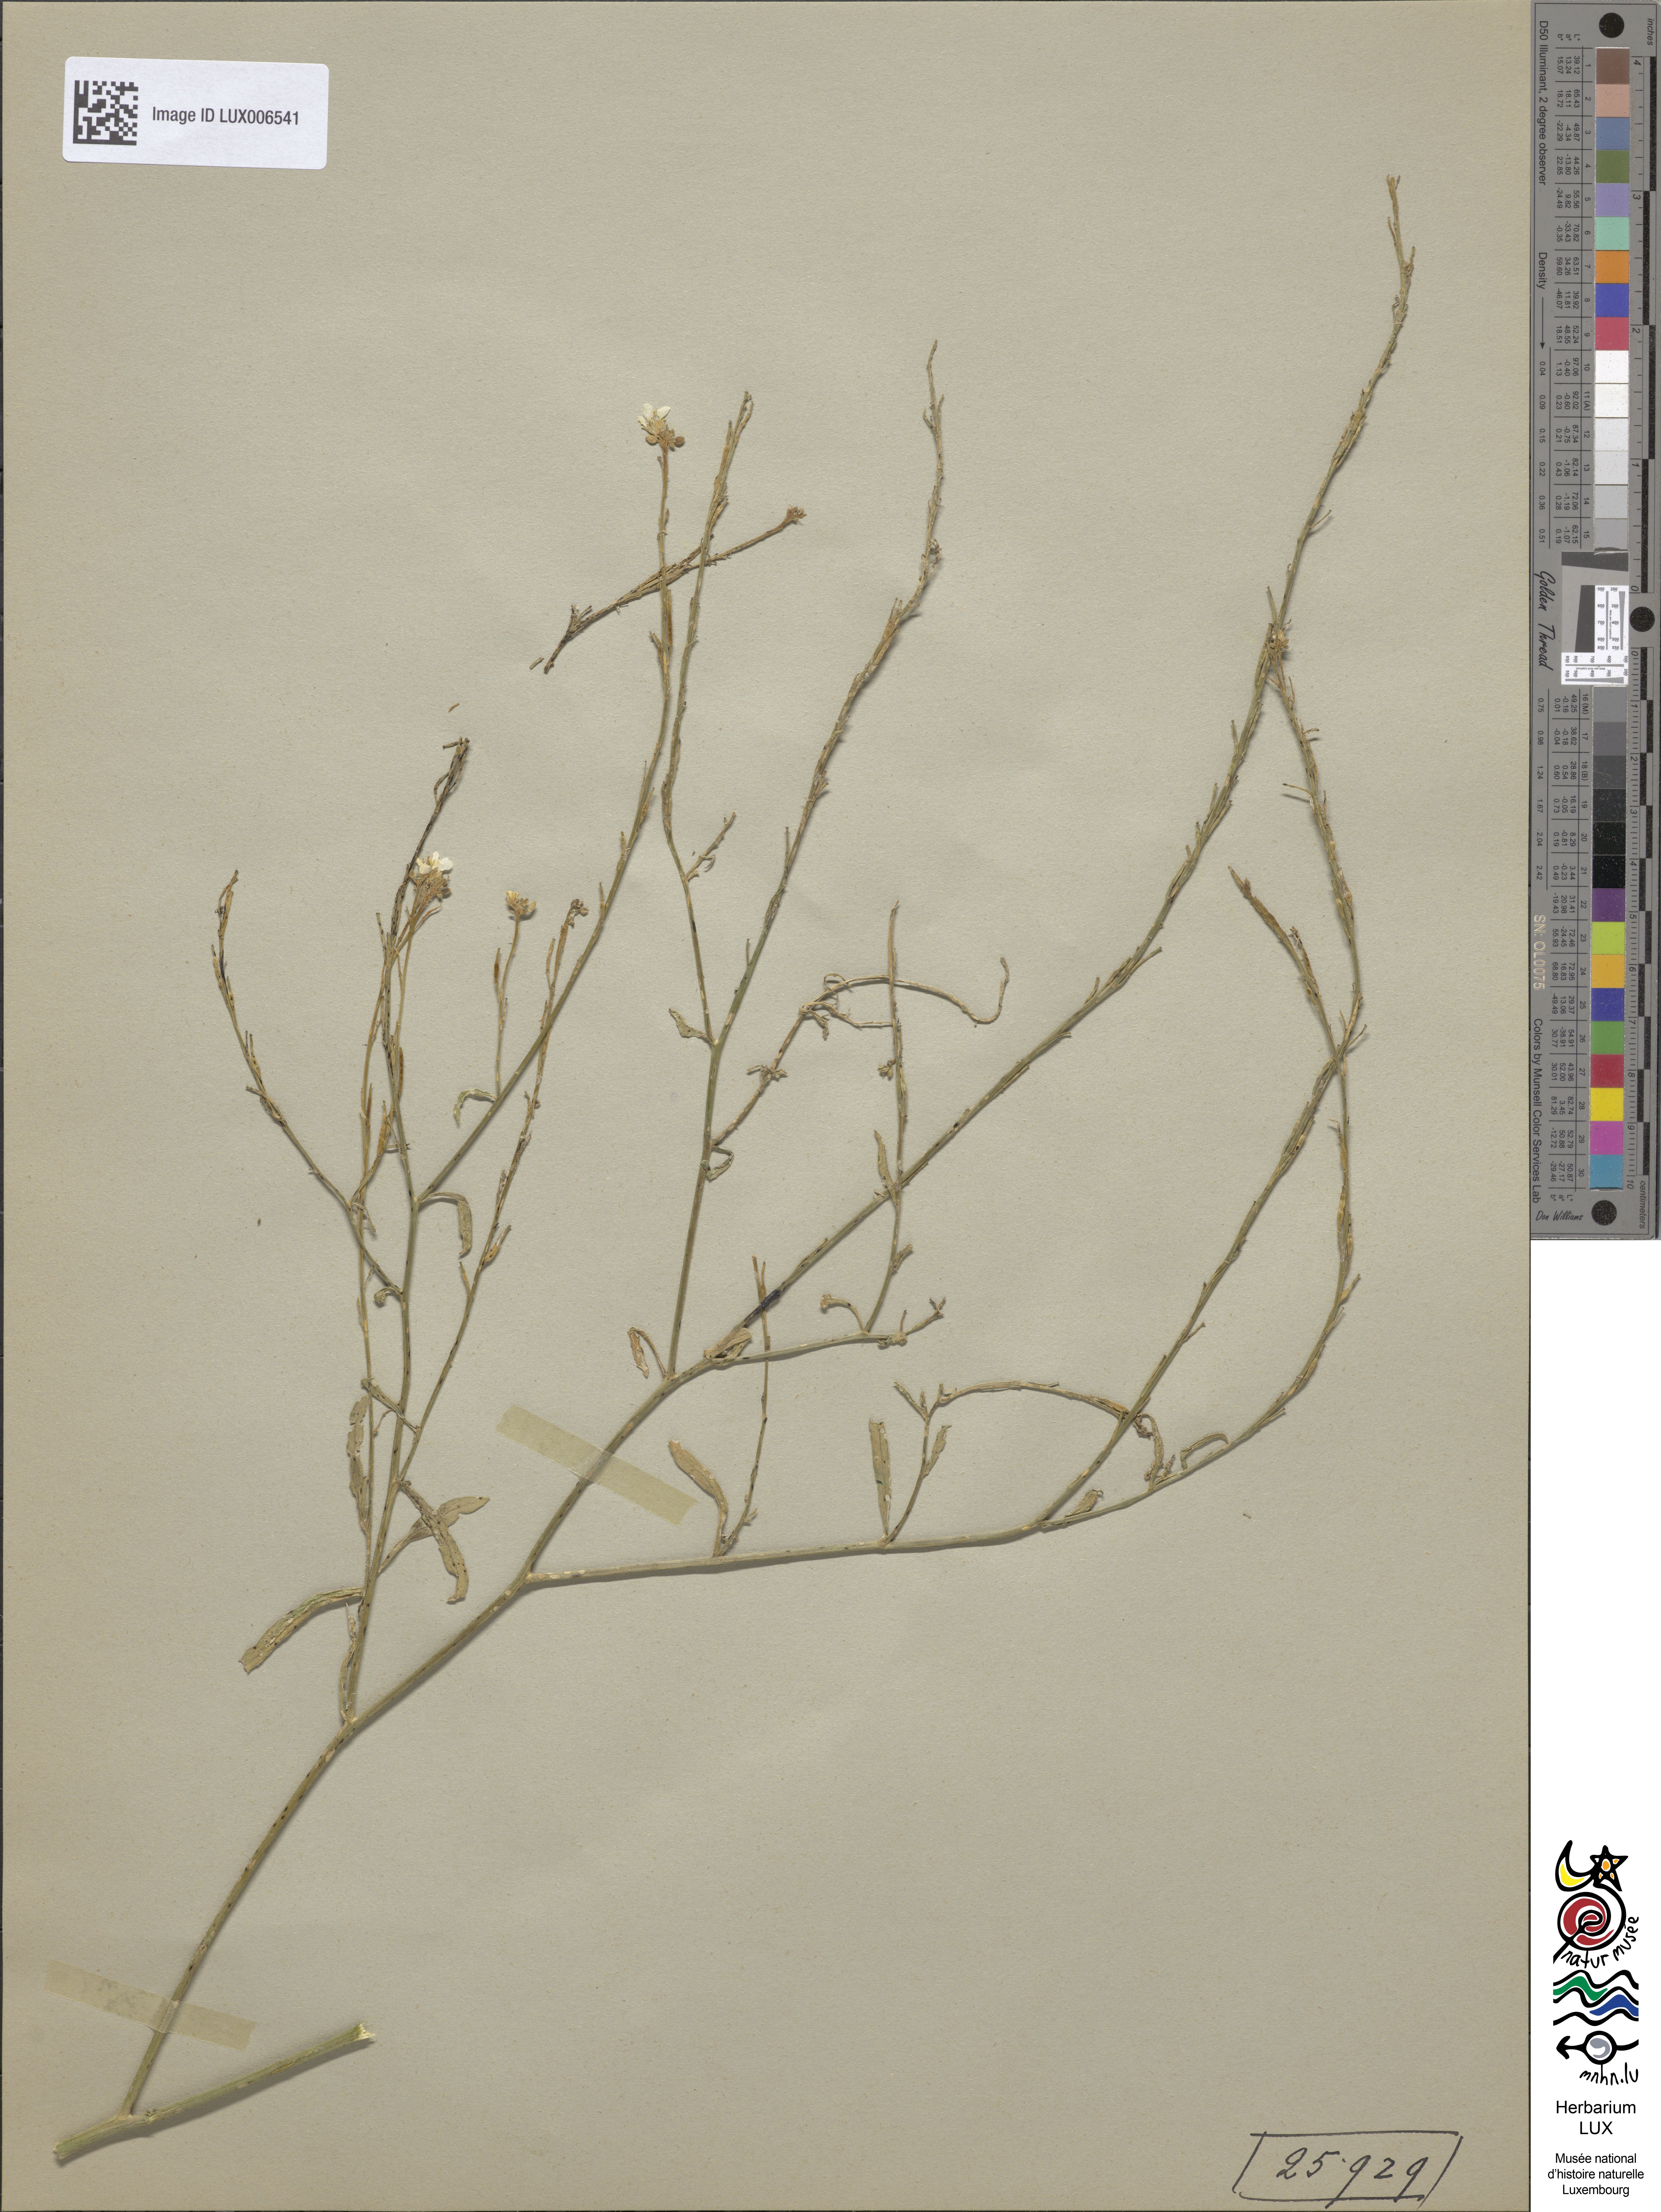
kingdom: Plantae
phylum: Tracheophyta
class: Magnoliopsida
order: Brassicales
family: Brassicaceae
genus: Sinapis
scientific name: Sinapis
